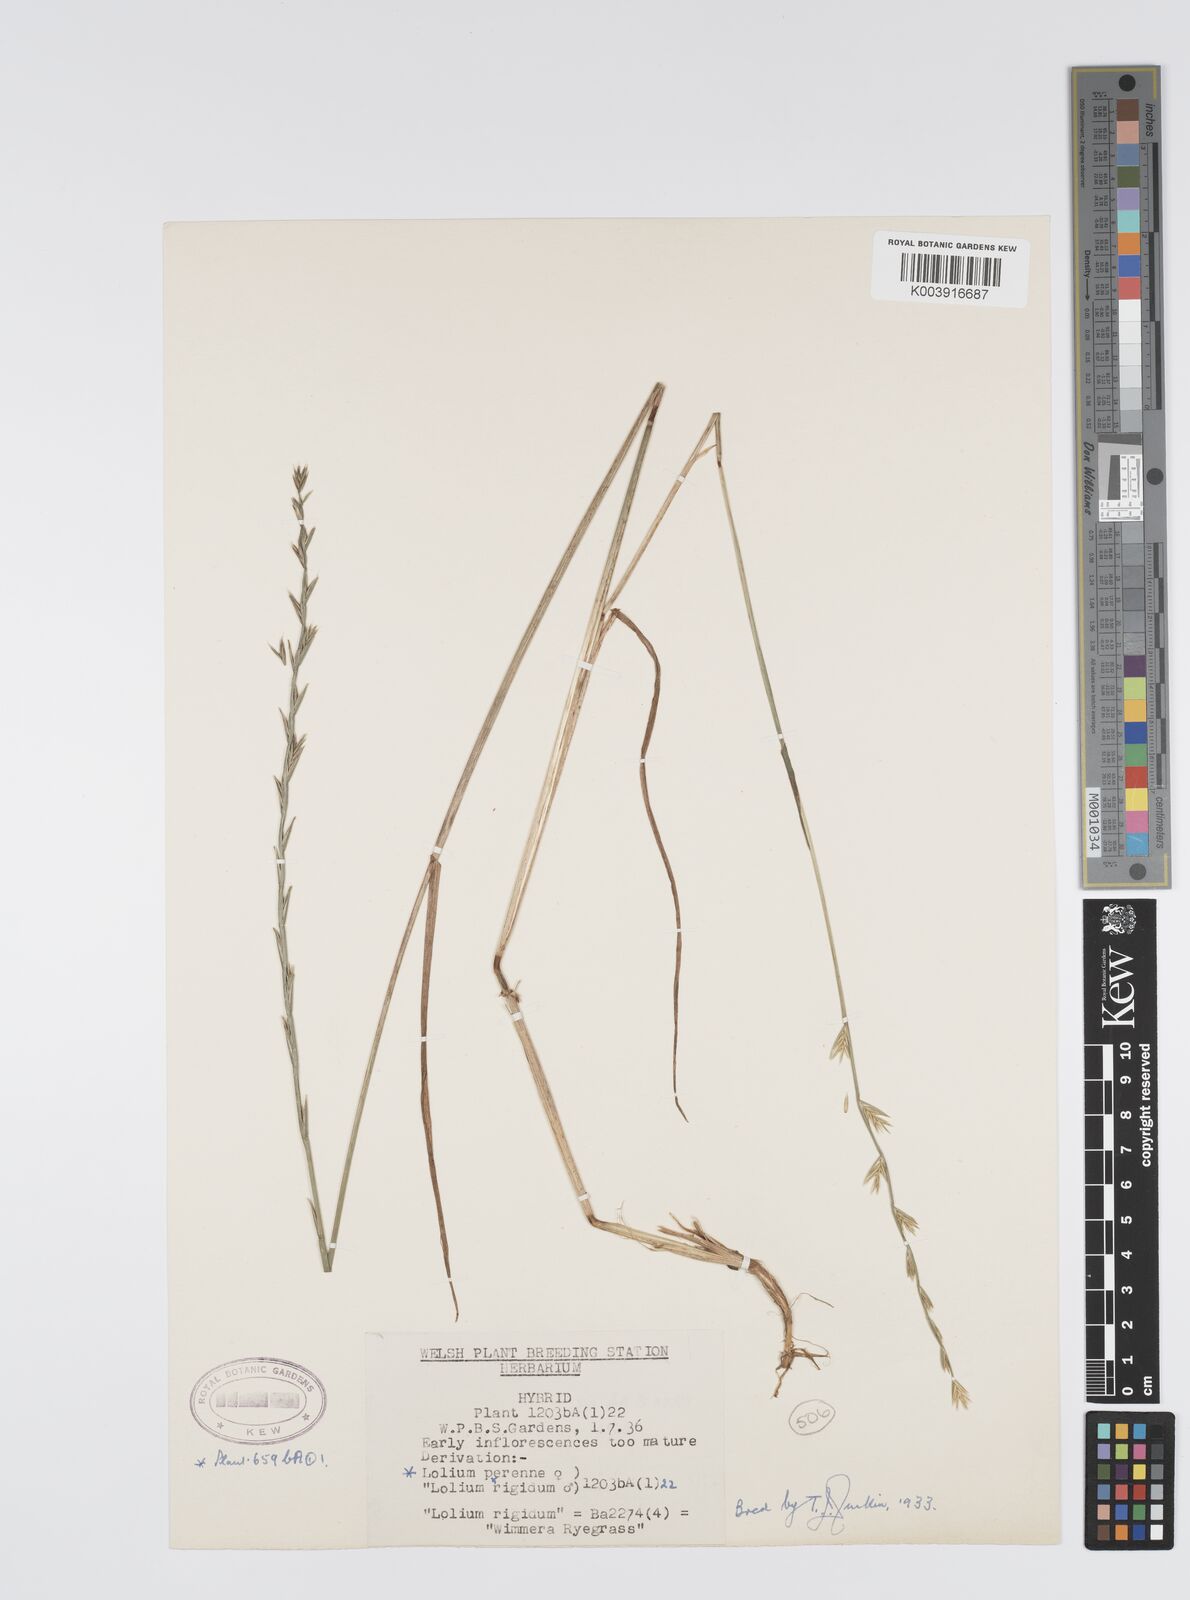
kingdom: Plantae
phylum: Tracheophyta
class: Liliopsida
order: Poales
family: Poaceae
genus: Lolium
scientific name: Lolium perenne
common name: Perennial ryegrass
